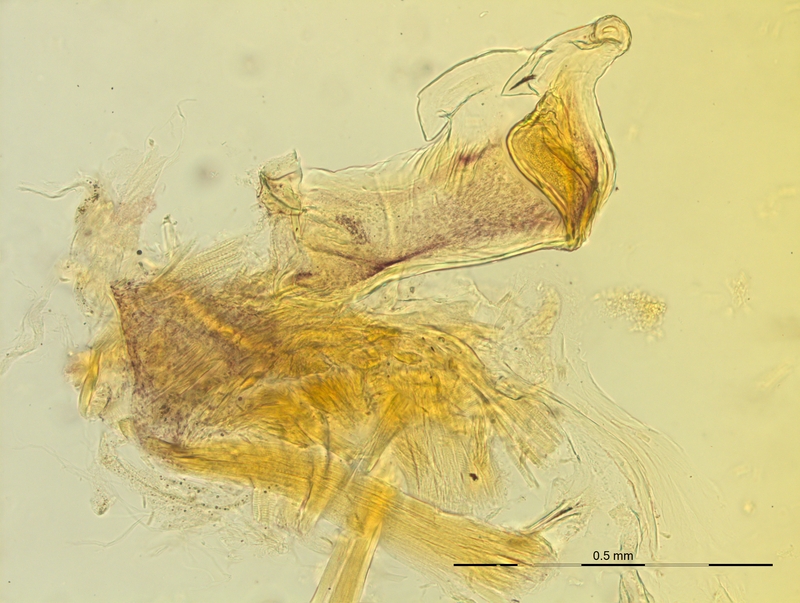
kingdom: Animalia
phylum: Arthropoda
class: Diplopoda
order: Chordeumatida
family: Craspedosomatidae
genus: Craspedosoma
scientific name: Craspedosoma rawlinsii
